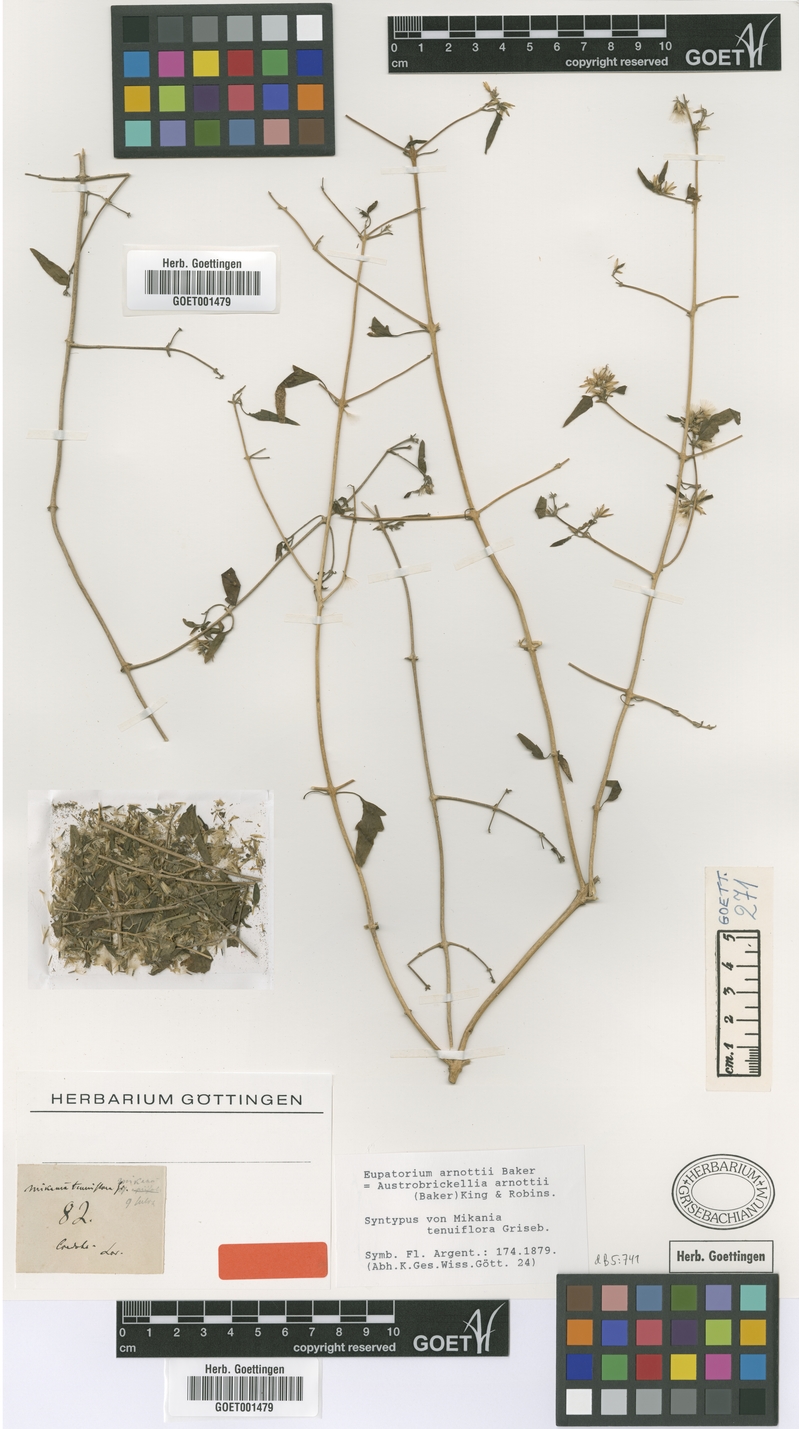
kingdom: Plantae
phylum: Tracheophyta
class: Magnoliopsida
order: Asterales
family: Asteraceae
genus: Austrobrickellia
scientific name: Austrobrickellia arnottii
